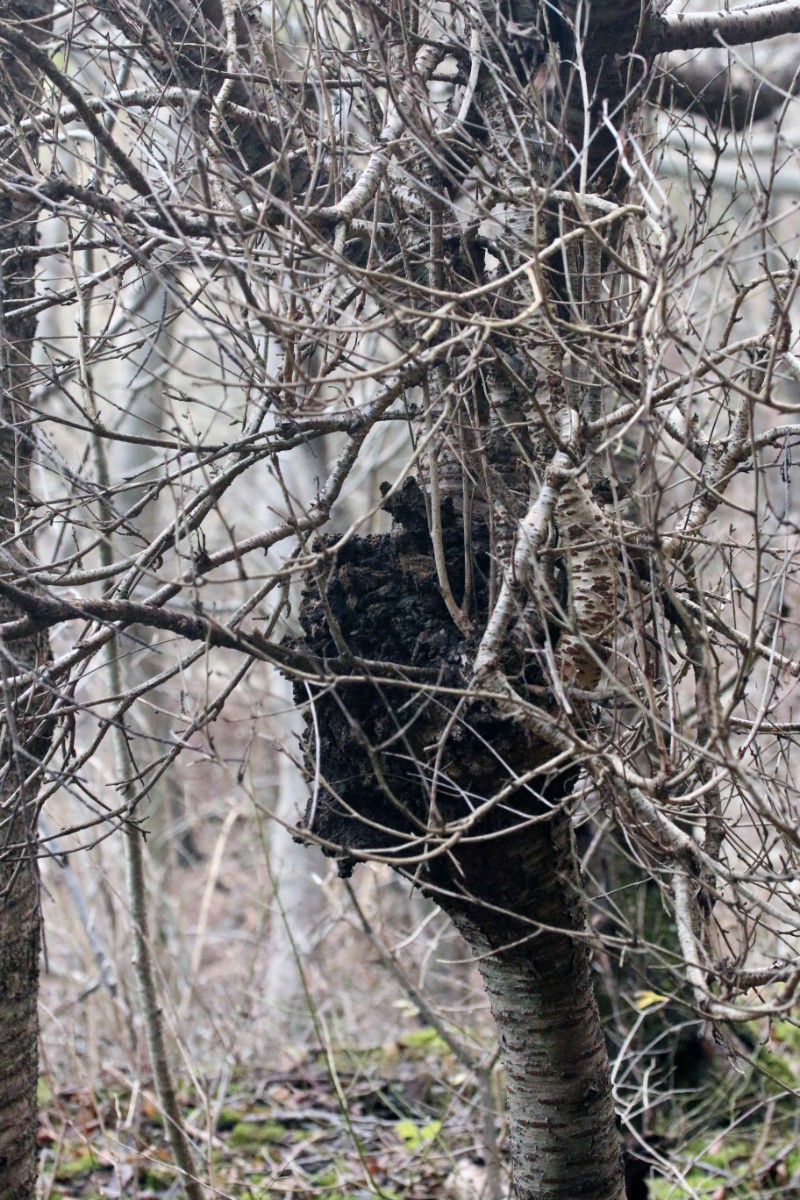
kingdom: Fungi
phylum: Ascomycota
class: Taphrinomycetes
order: Taphrinales
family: Taphrinaceae
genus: Taphrina
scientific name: Taphrina wiesneri
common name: Cherry leaf curl
